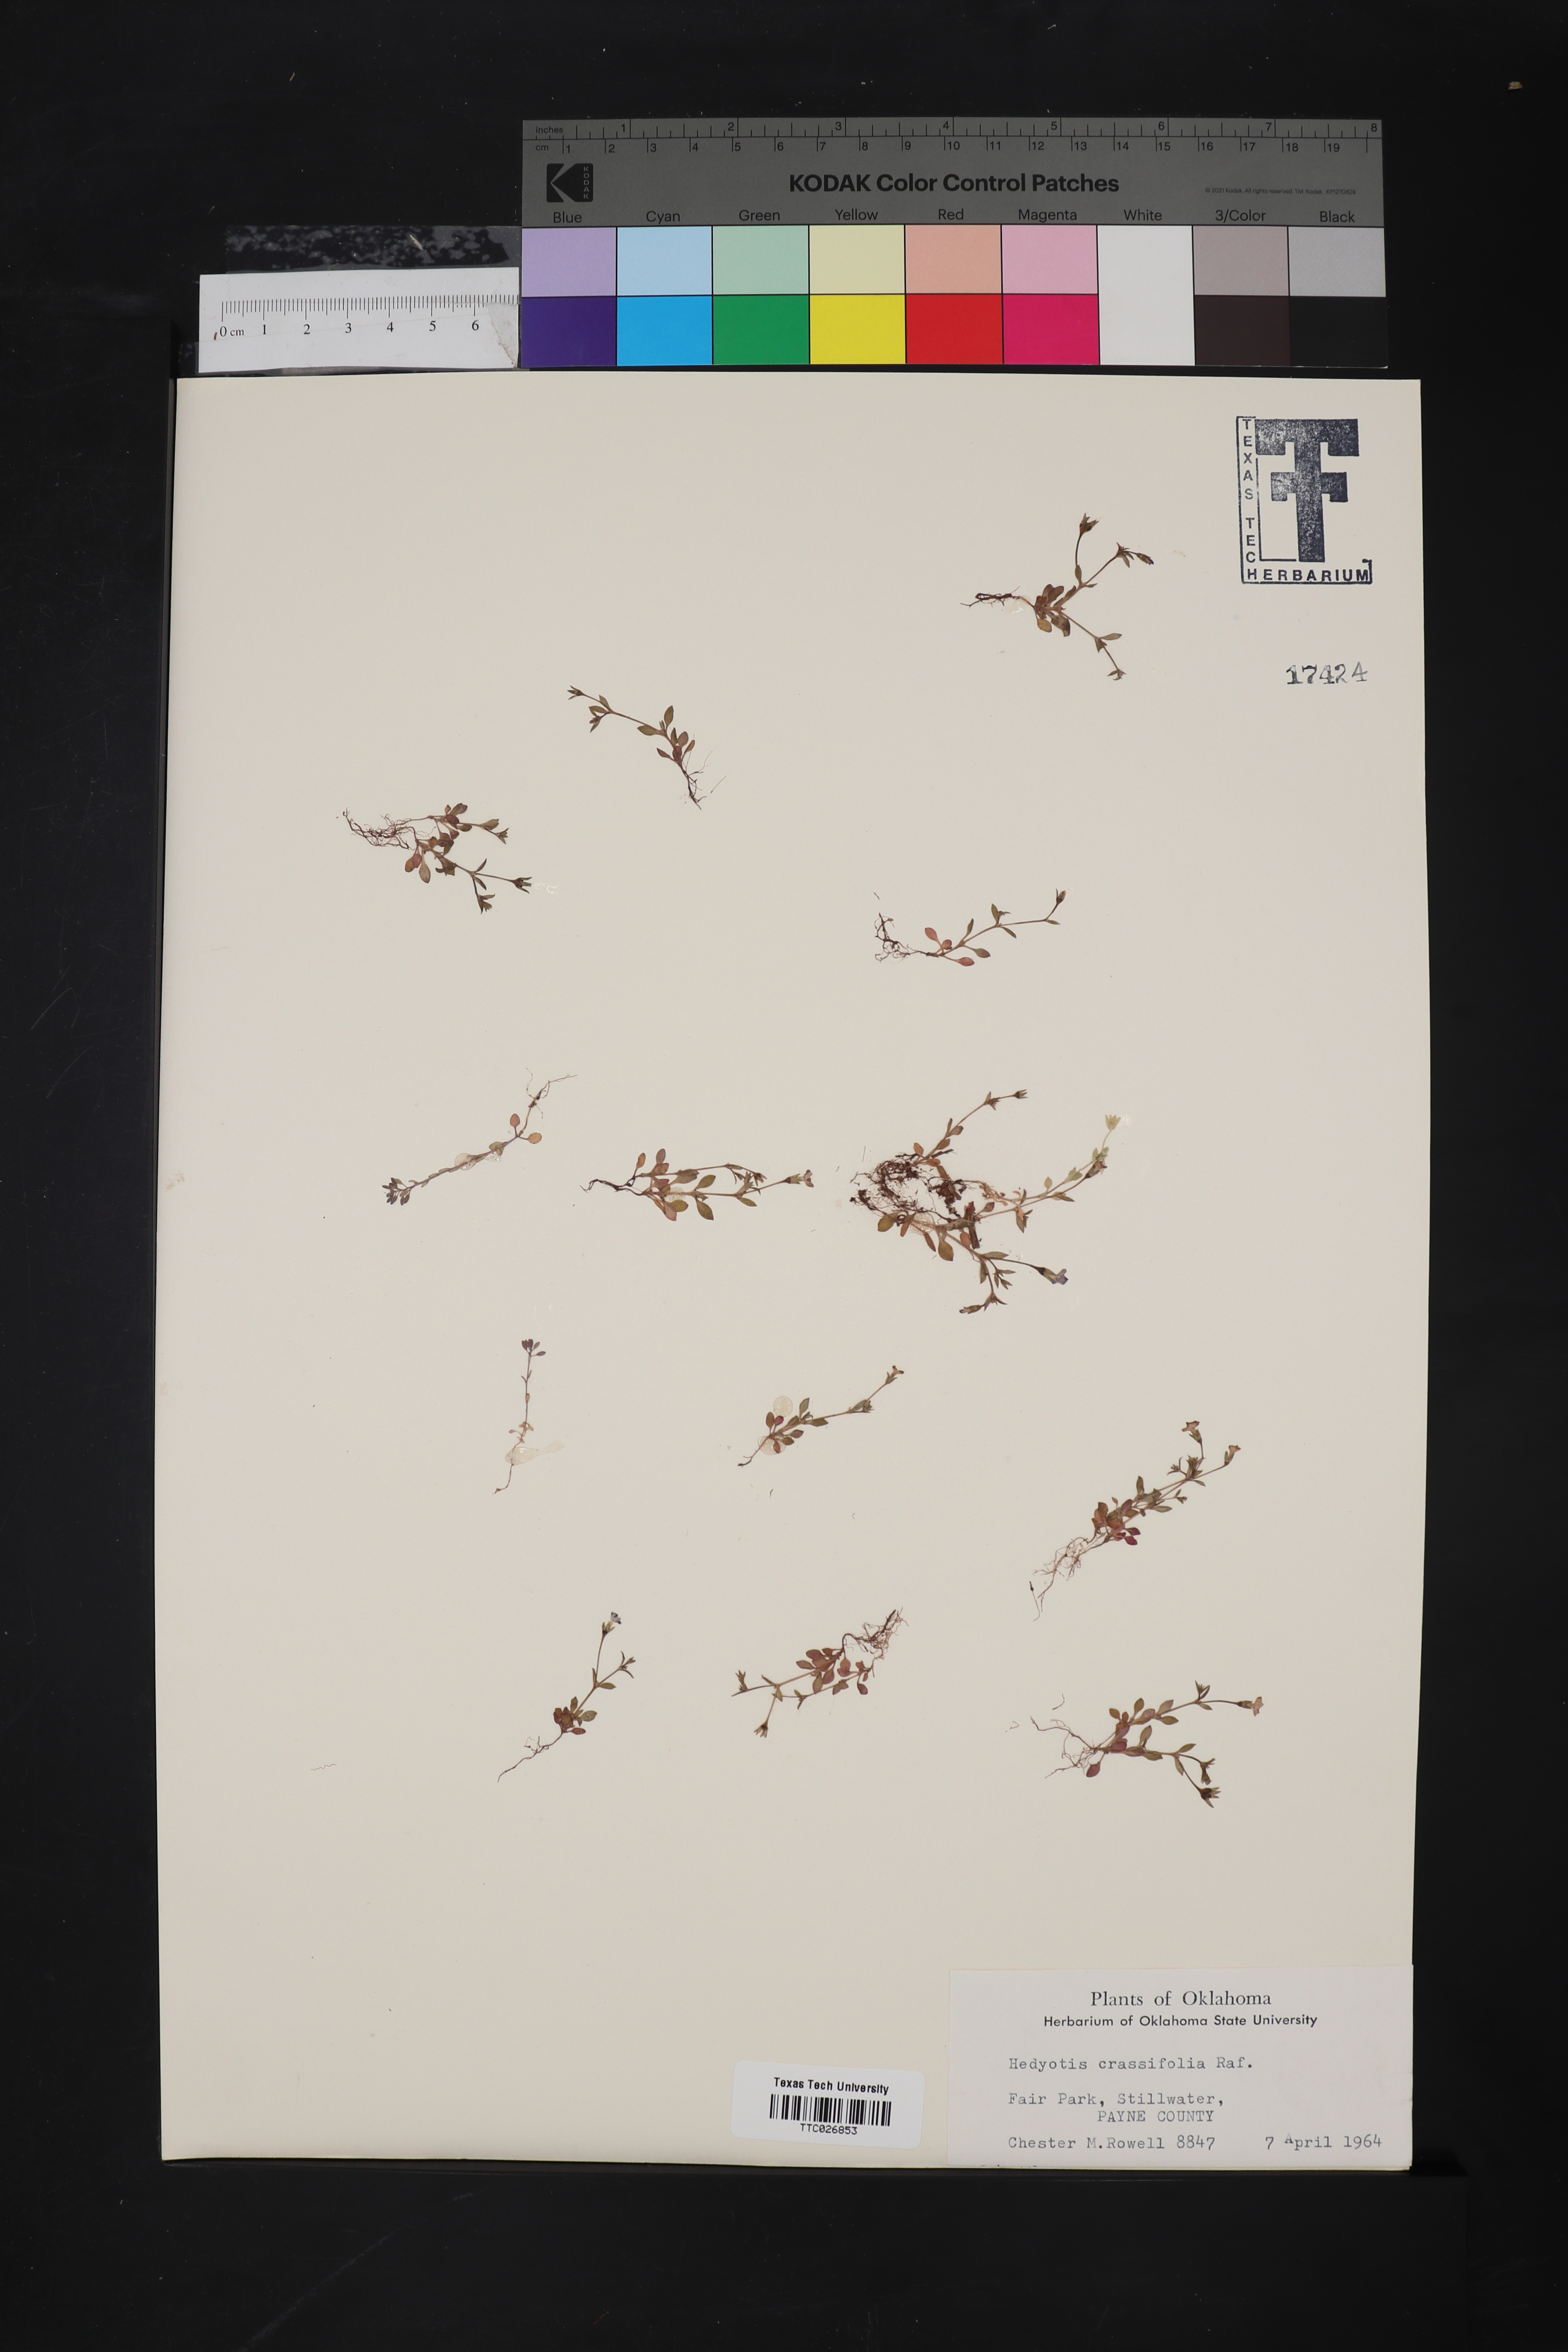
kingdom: Plantae
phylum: Tracheophyta
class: Magnoliopsida
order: Gentianales
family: Rubiaceae
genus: Houstonia
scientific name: Houstonia pusilla
